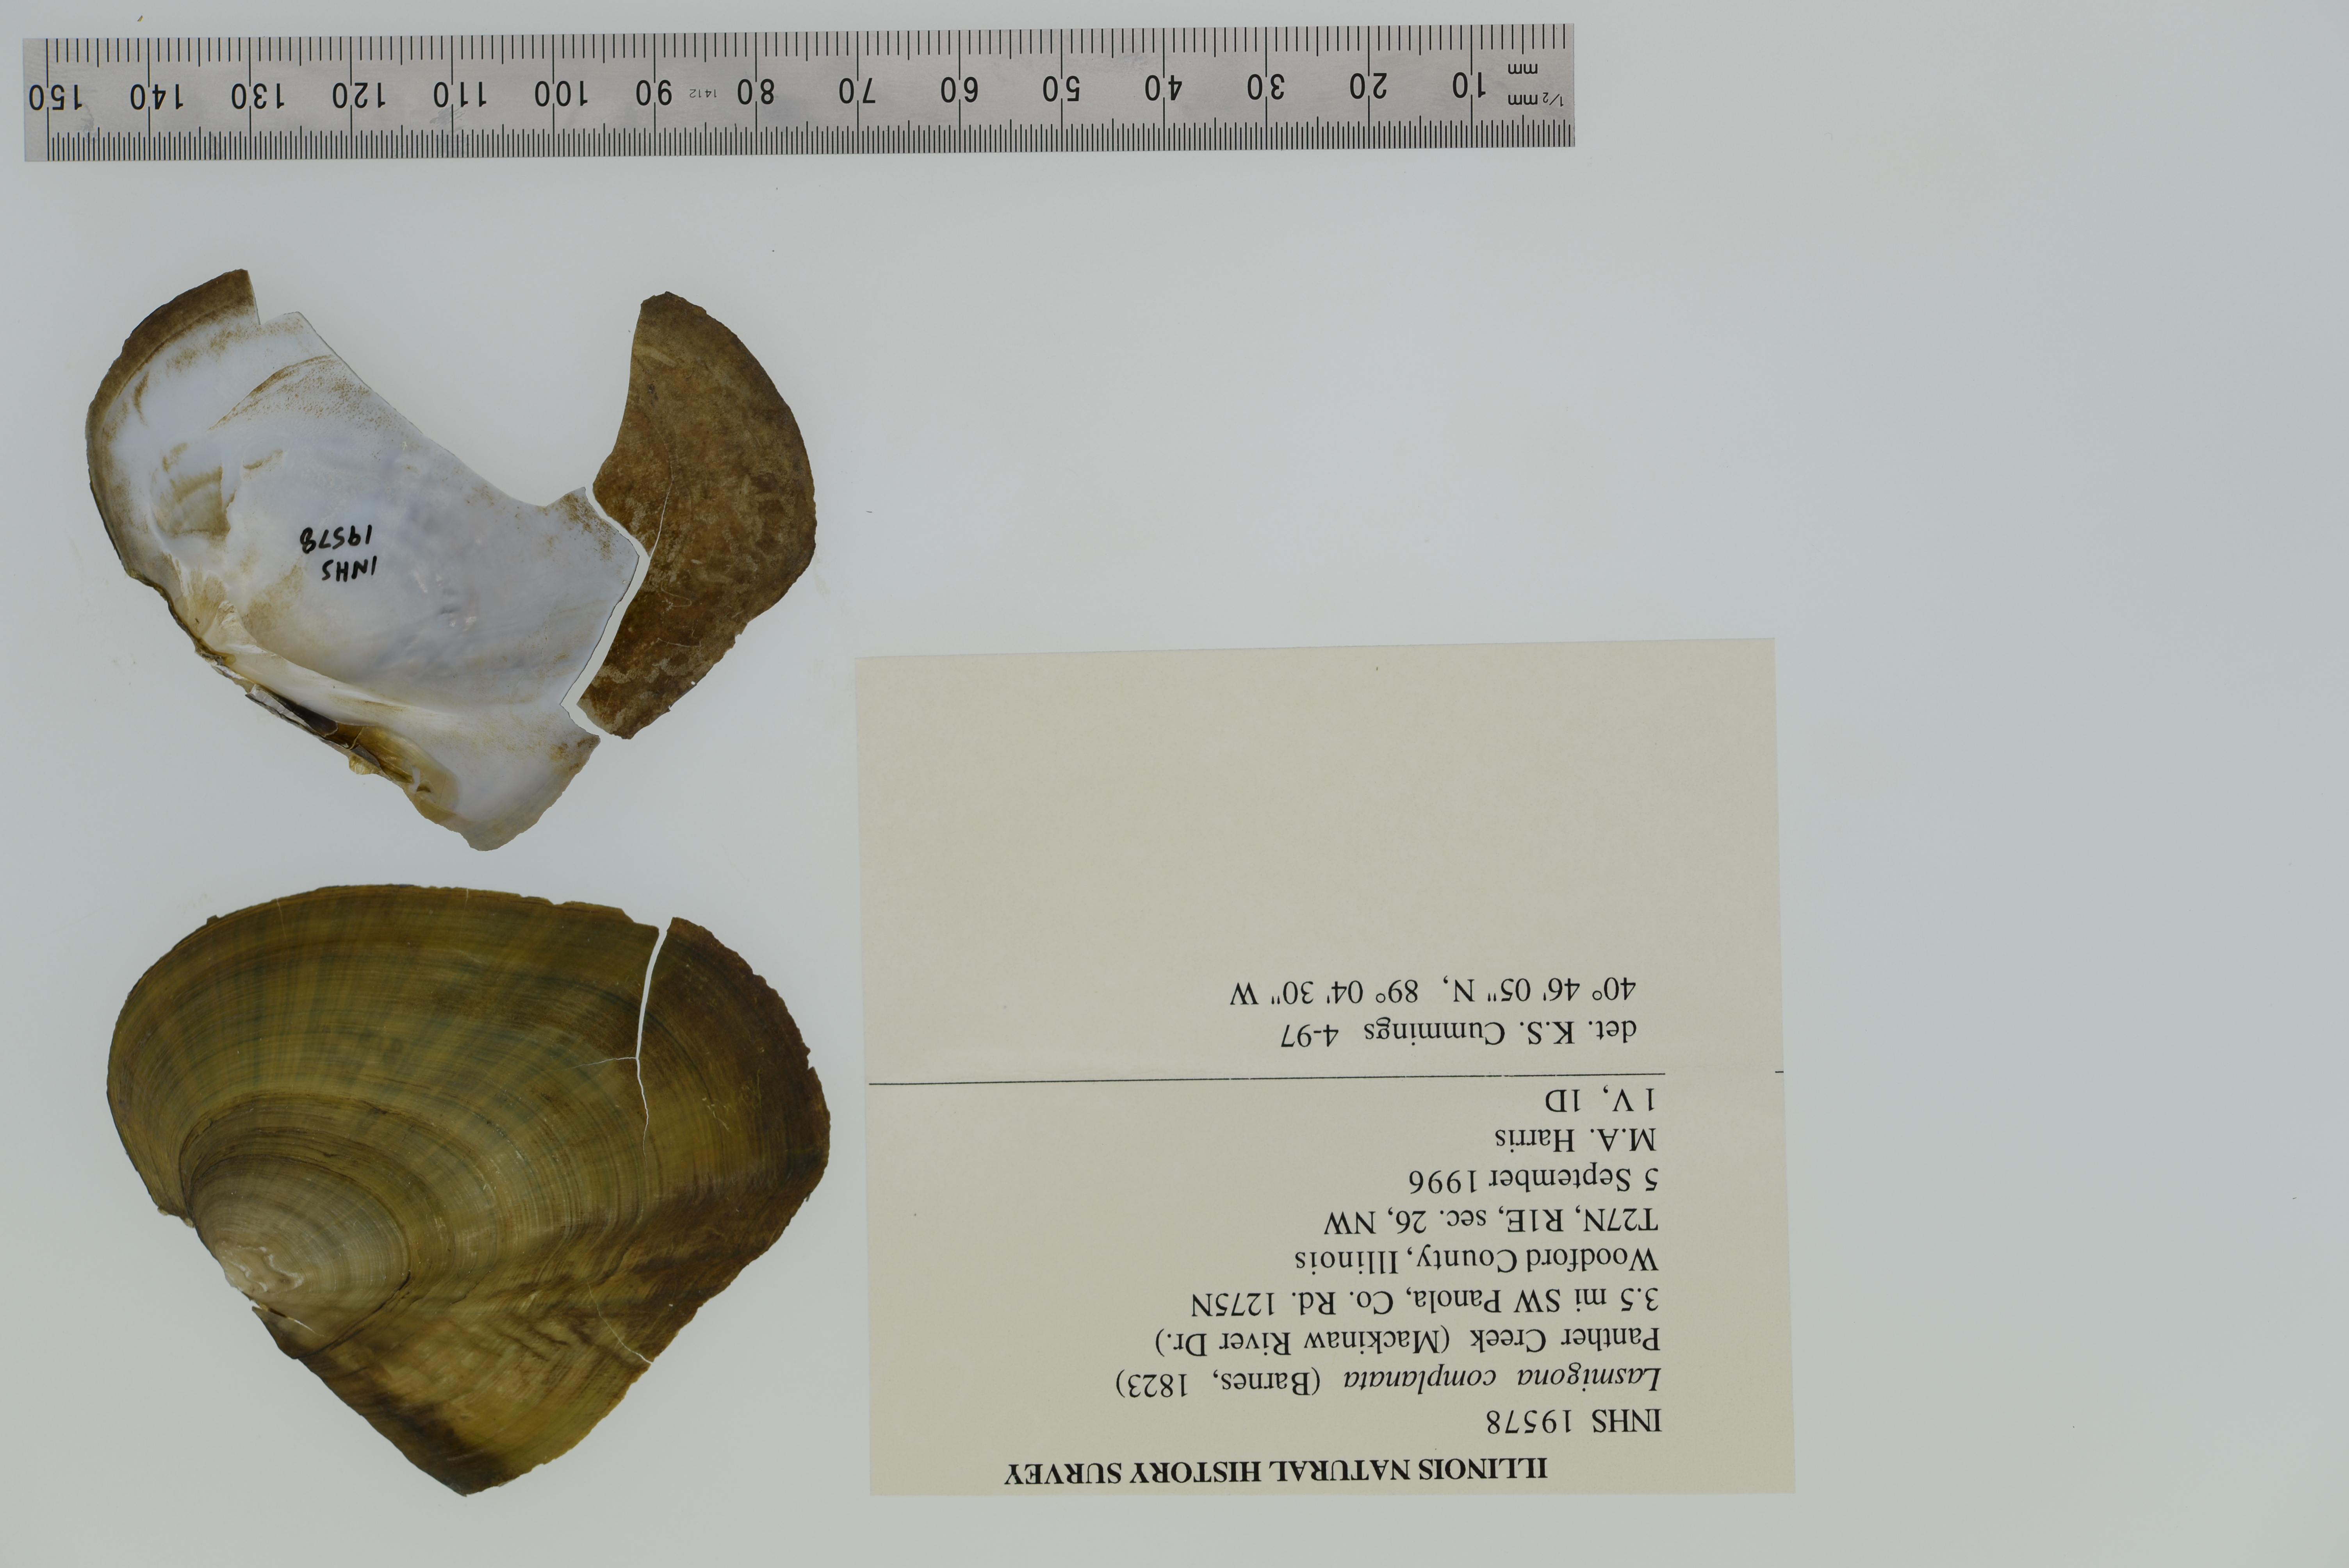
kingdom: Animalia
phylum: Mollusca
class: Bivalvia
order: Unionida
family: Unionidae
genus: Lasmigona
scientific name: Lasmigona complanata
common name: White heelsplitter
